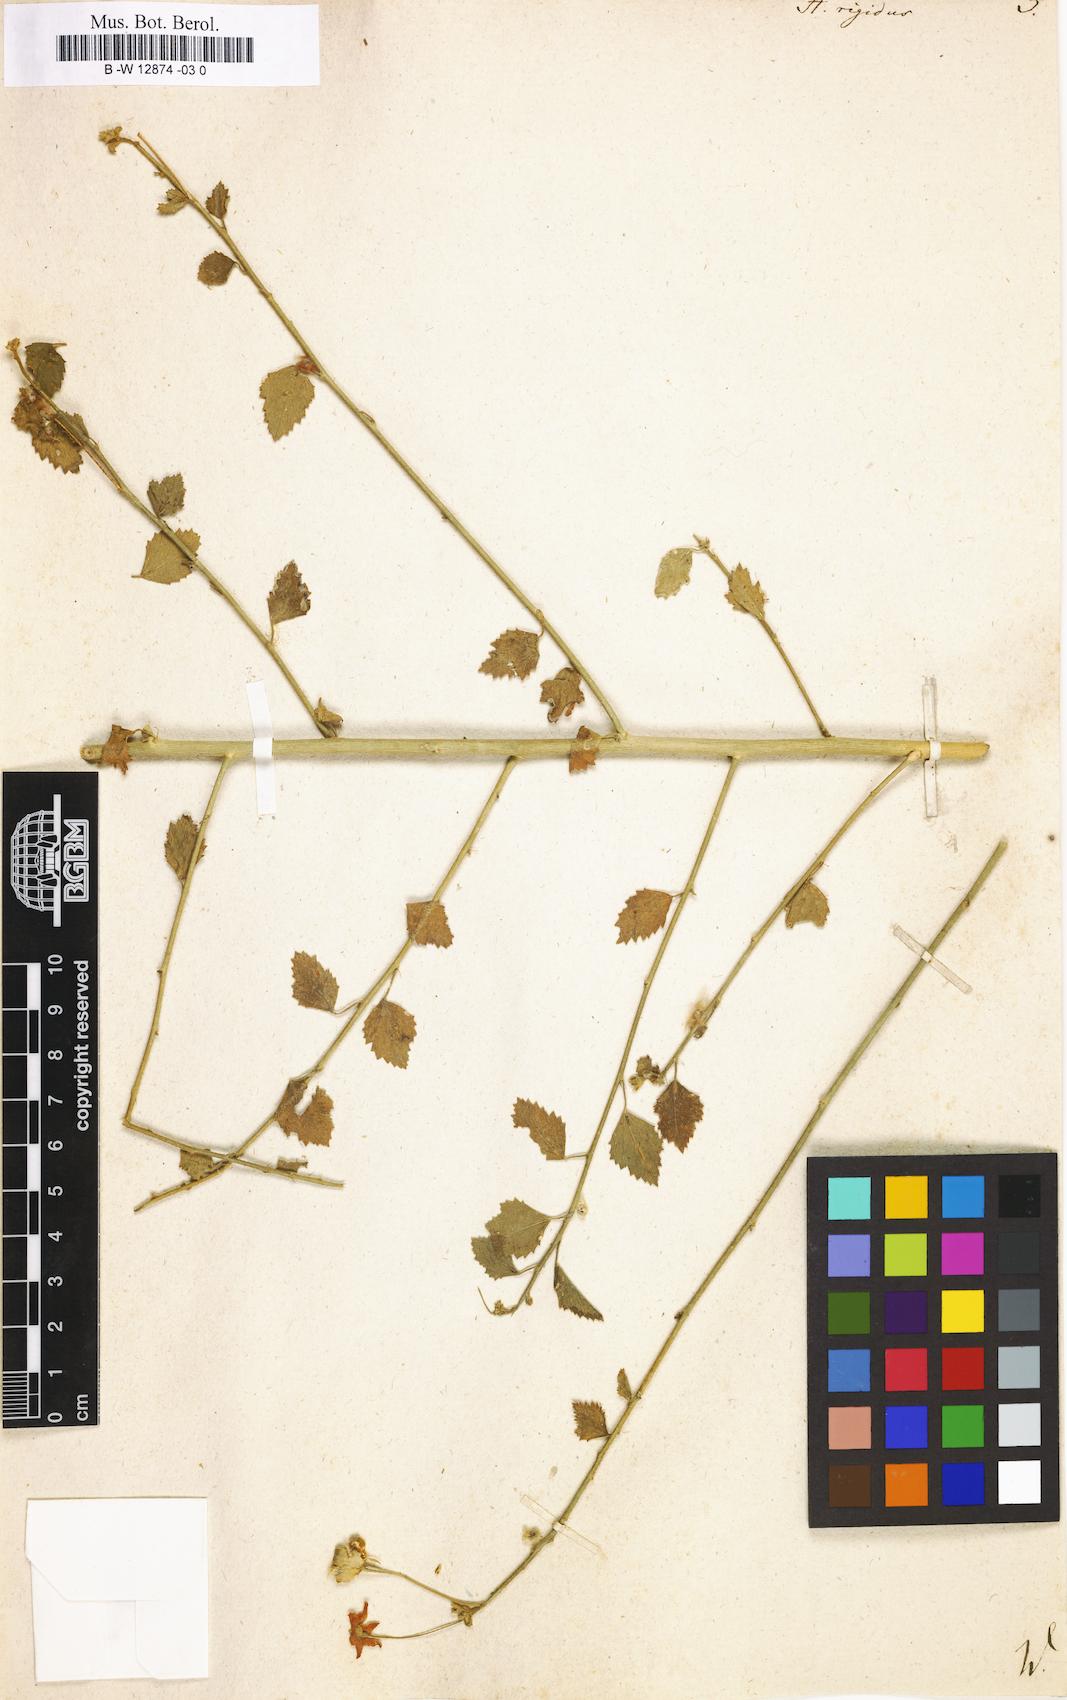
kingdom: Plantae
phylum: Tracheophyta
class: Magnoliopsida
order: Malvales
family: Malvaceae
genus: Hibiscus
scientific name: Hibiscus micranthus
